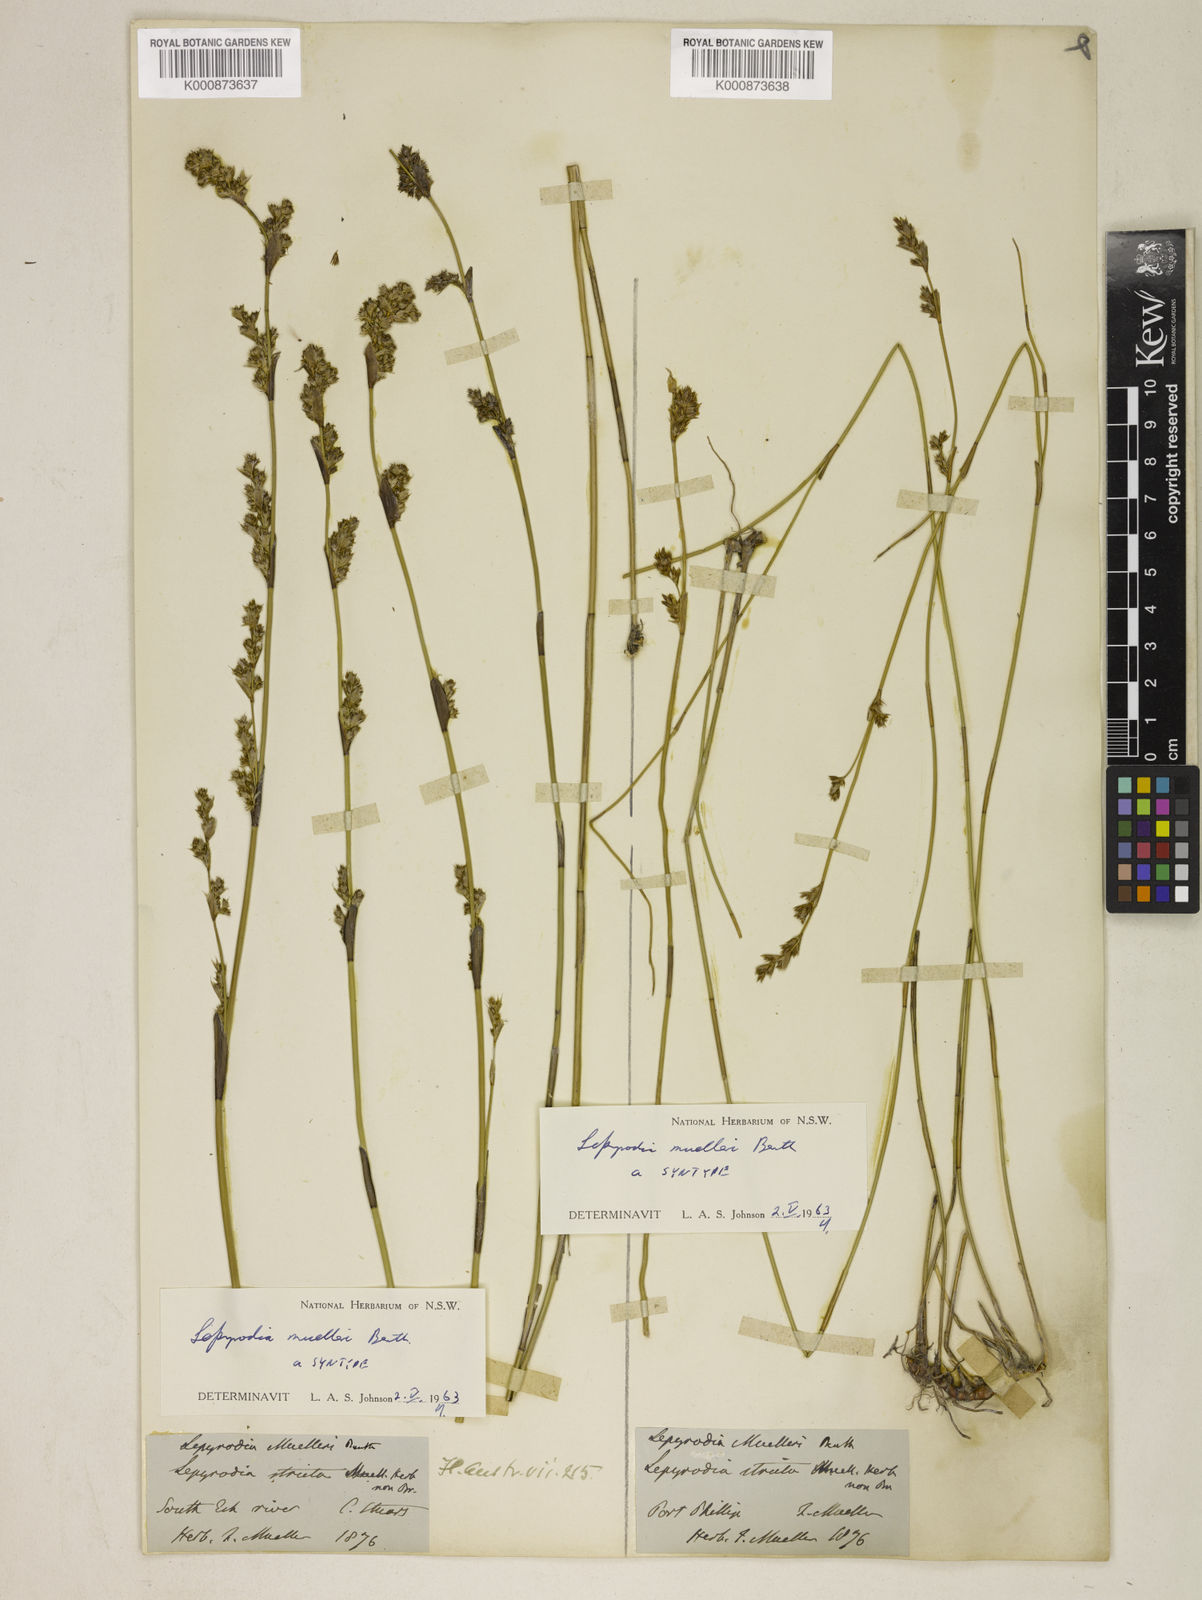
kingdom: Plantae
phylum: Tracheophyta
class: Liliopsida
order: Poales
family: Restionaceae
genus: Lepyrodia
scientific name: Lepyrodia muelleri
